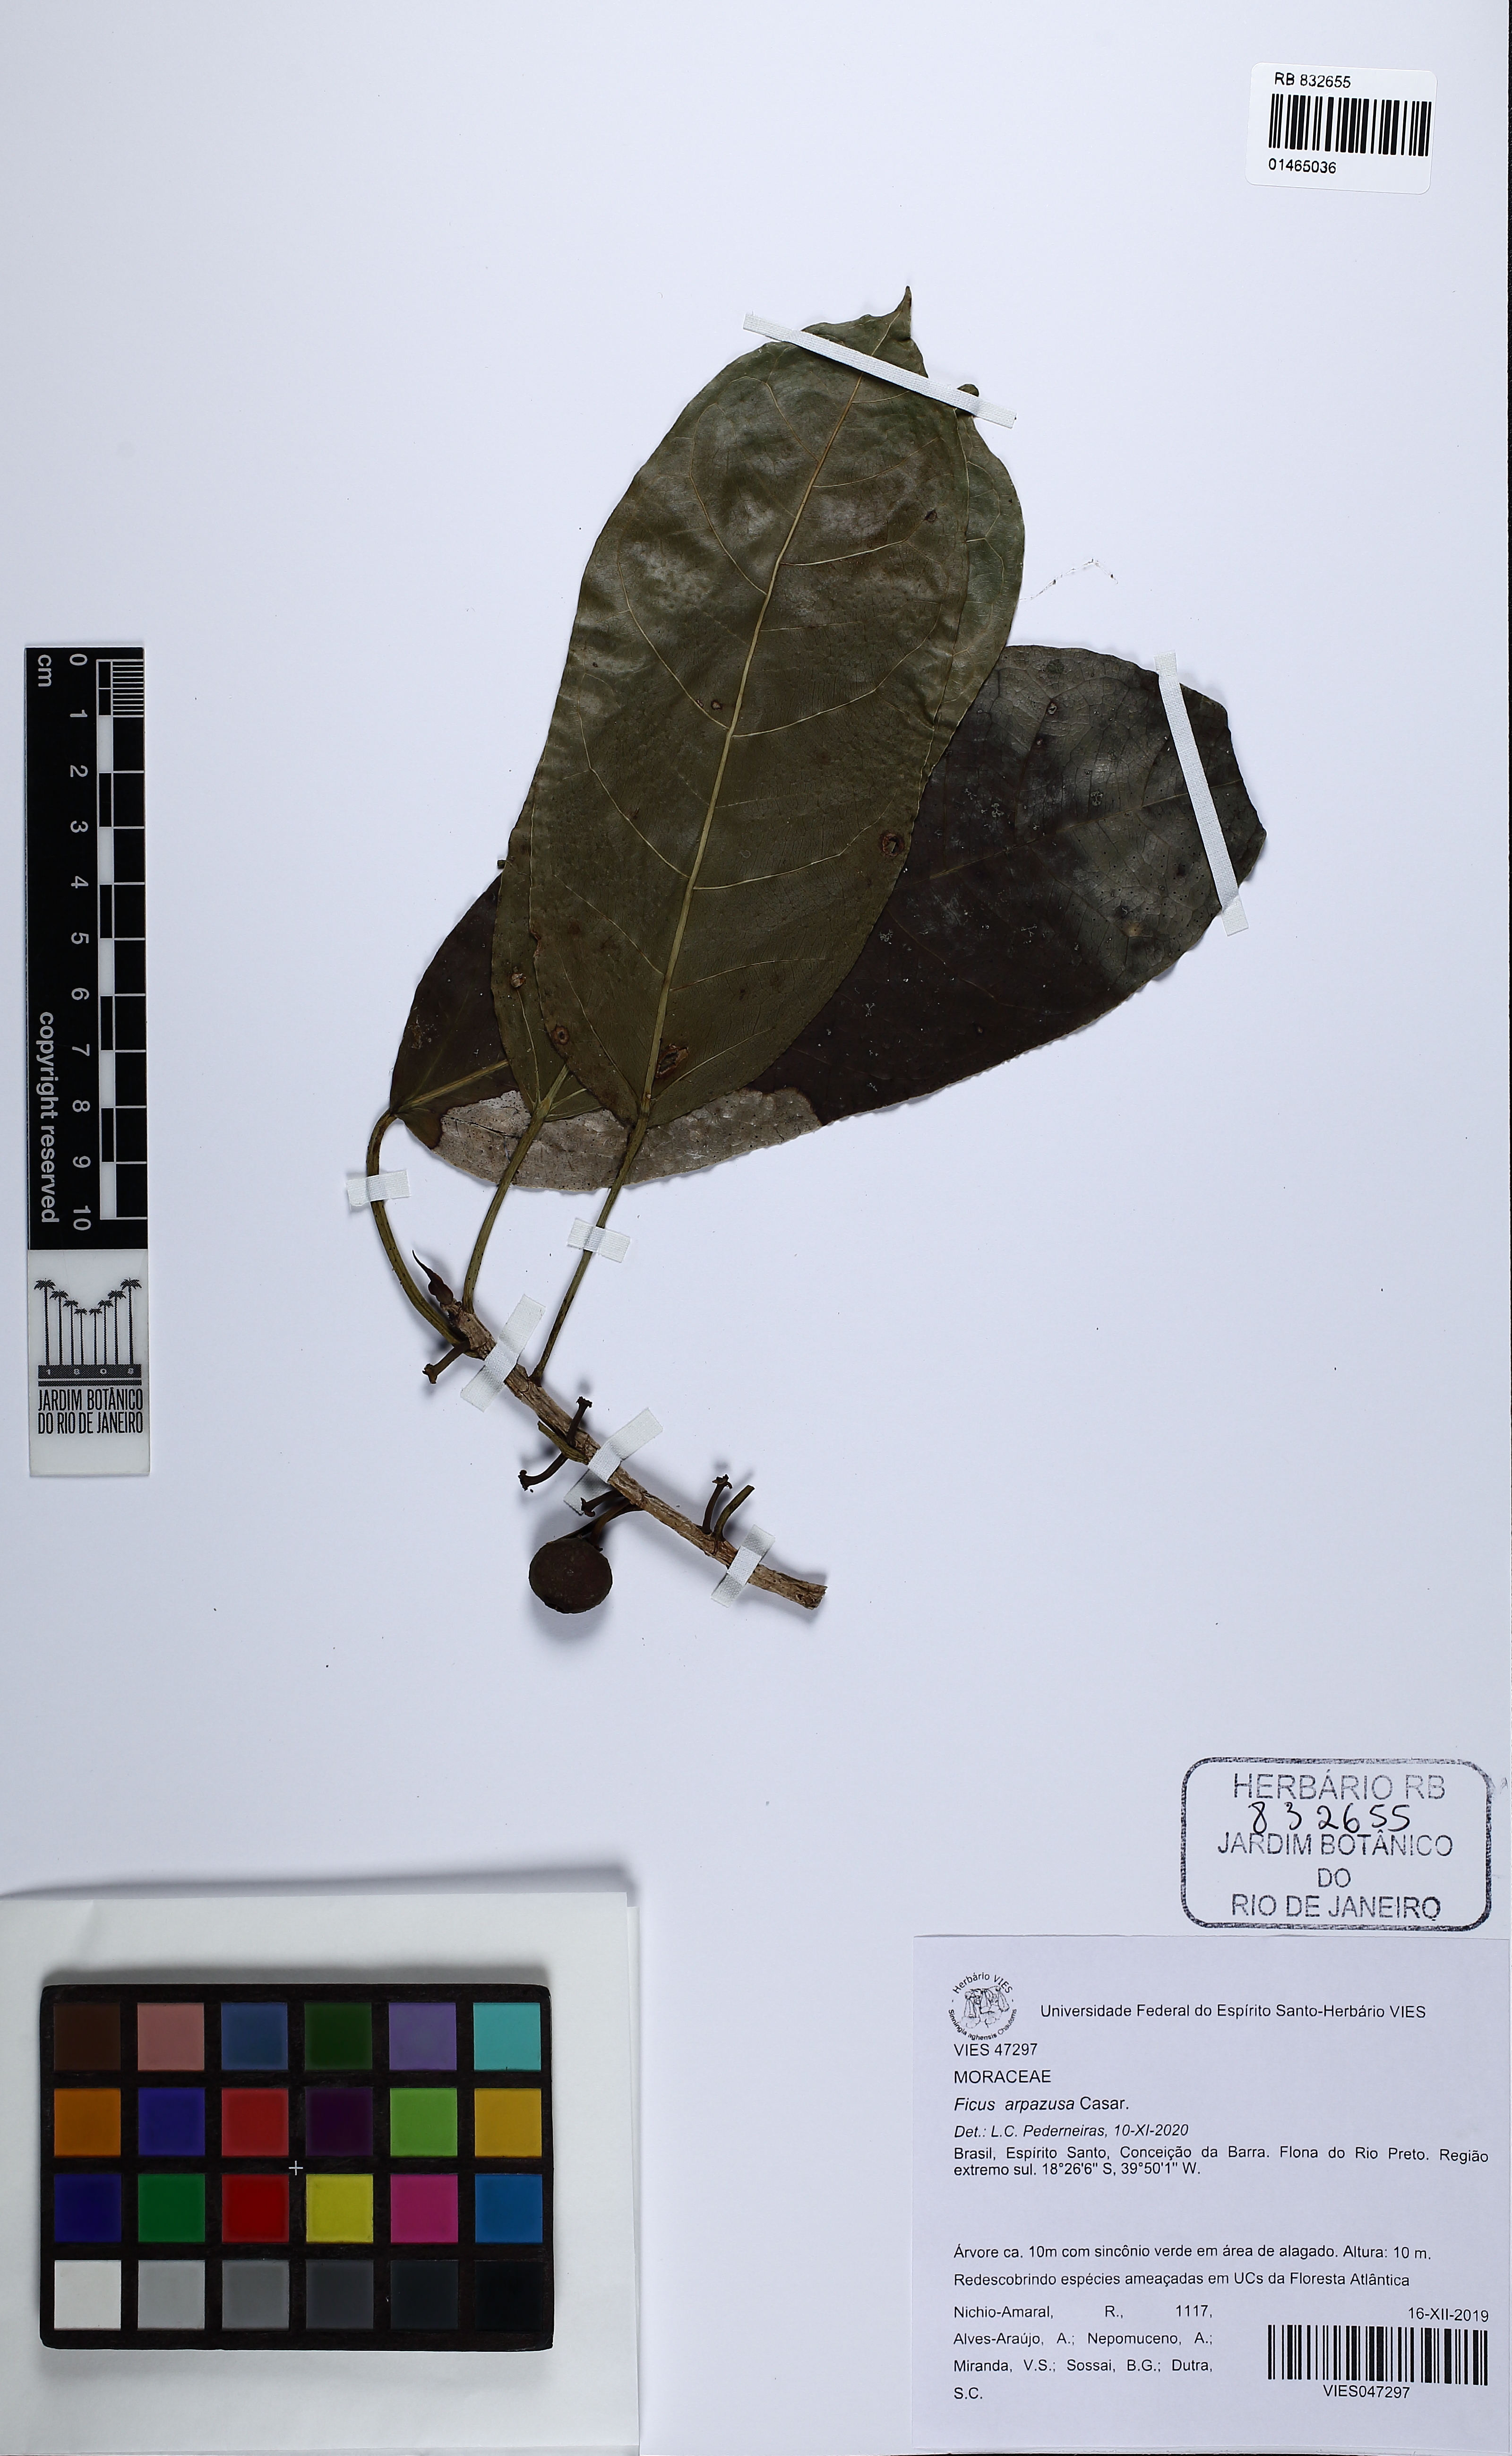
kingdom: Plantae
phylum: Tracheophyta
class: Magnoliopsida
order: Rosales
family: Moraceae
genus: Ficus
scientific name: Ficus
